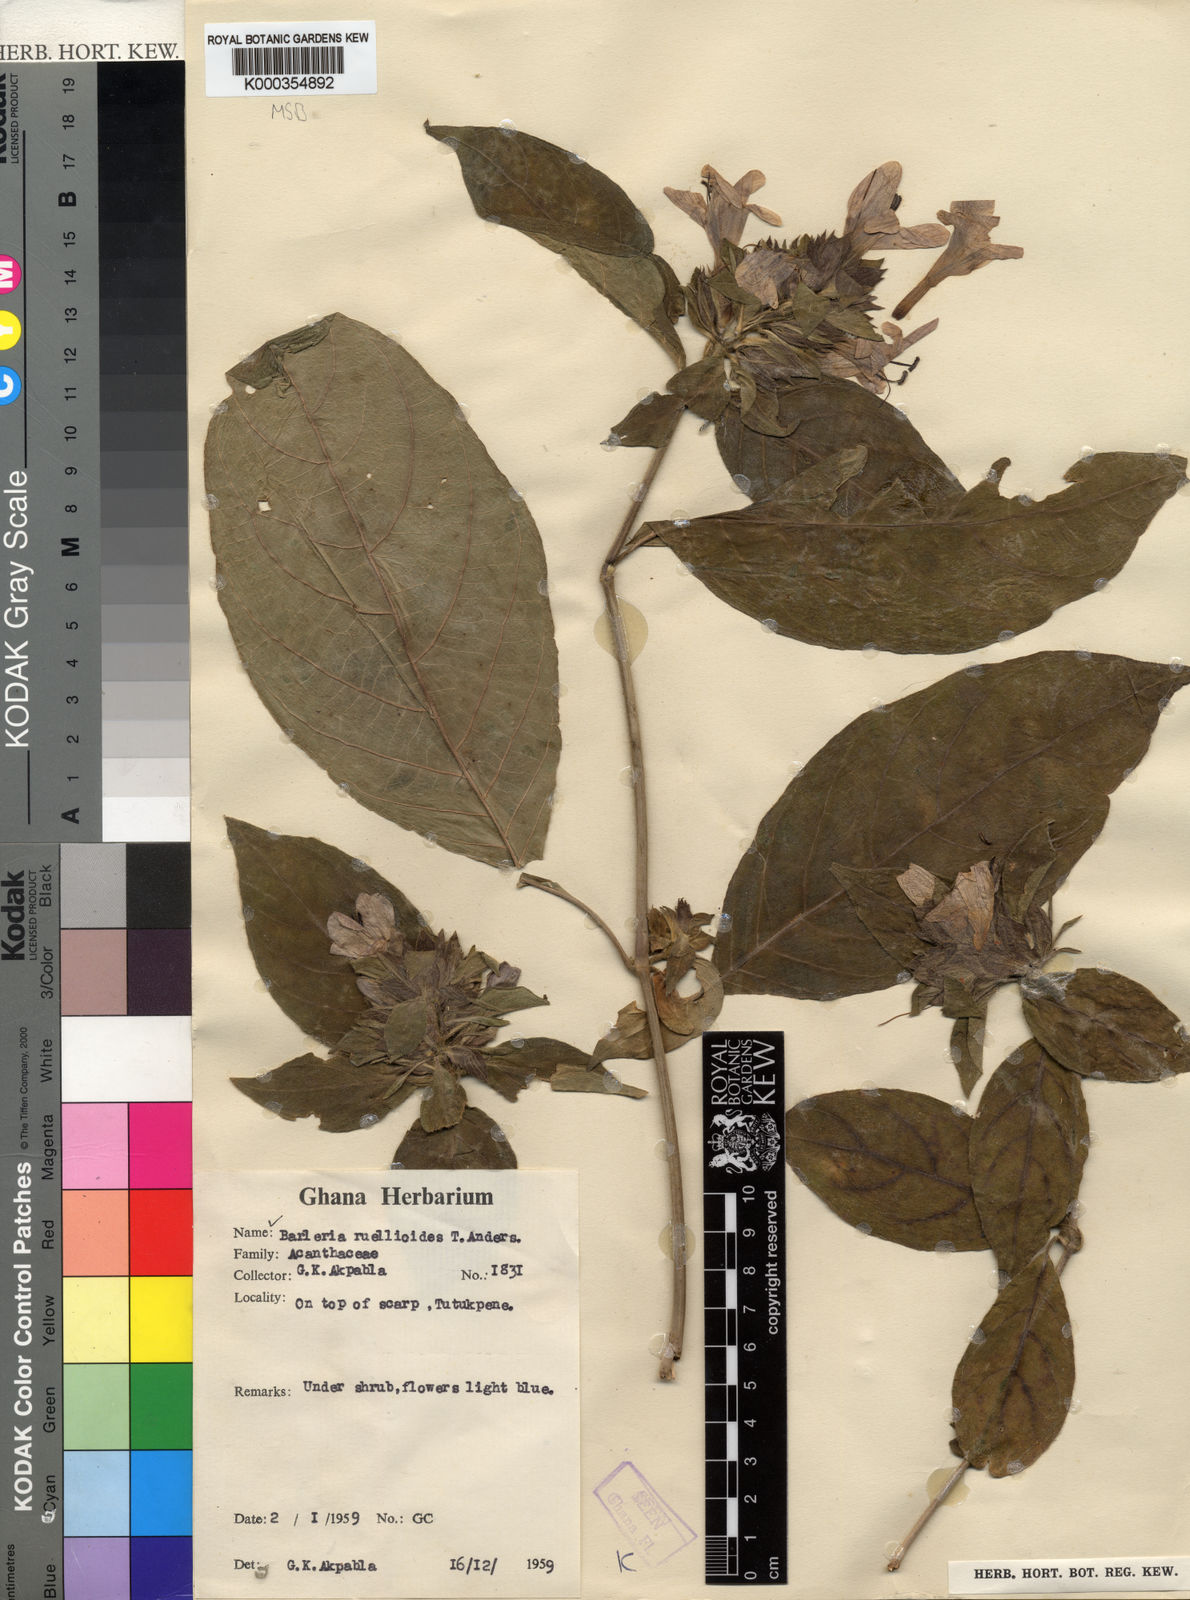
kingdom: Plantae
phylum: Tracheophyta
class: Magnoliopsida
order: Lamiales
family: Acanthaceae
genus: Barleria
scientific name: Barleria ruellioides
